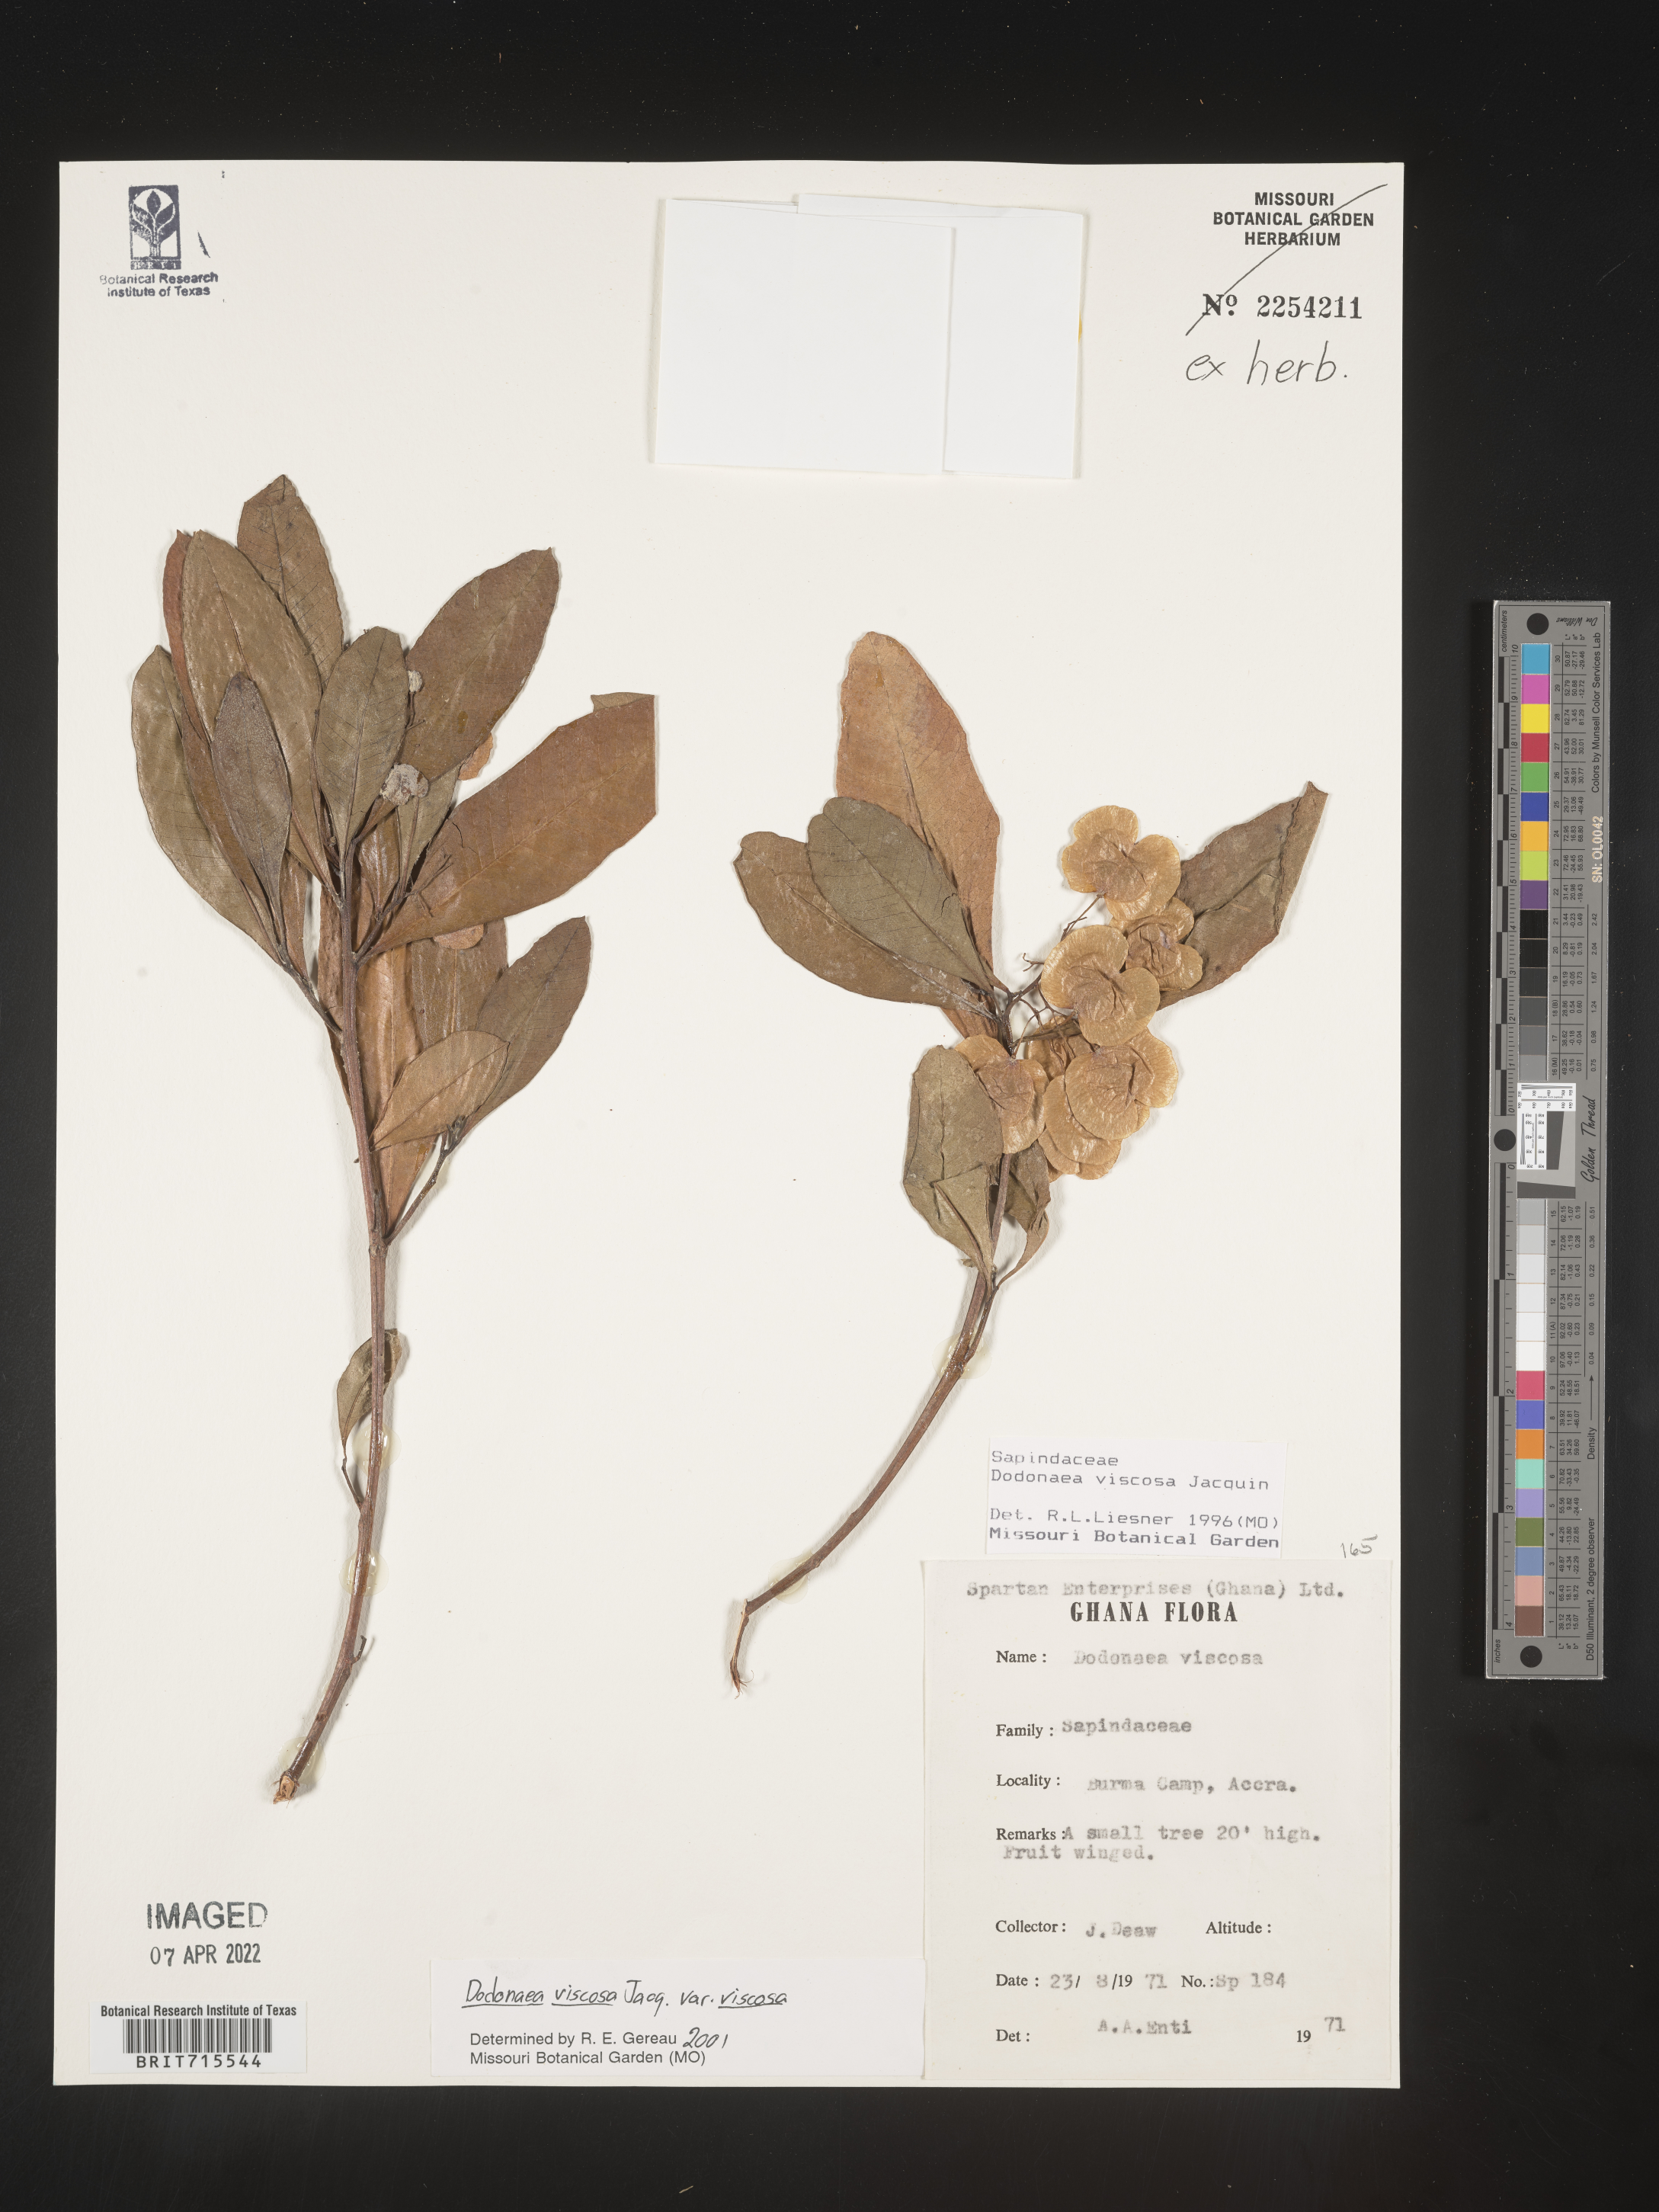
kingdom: Plantae
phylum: Tracheophyta
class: Magnoliopsida
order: Sapindales
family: Sapindaceae
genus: Dodonaea
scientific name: Dodonaea viscosa
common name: Hopbush
